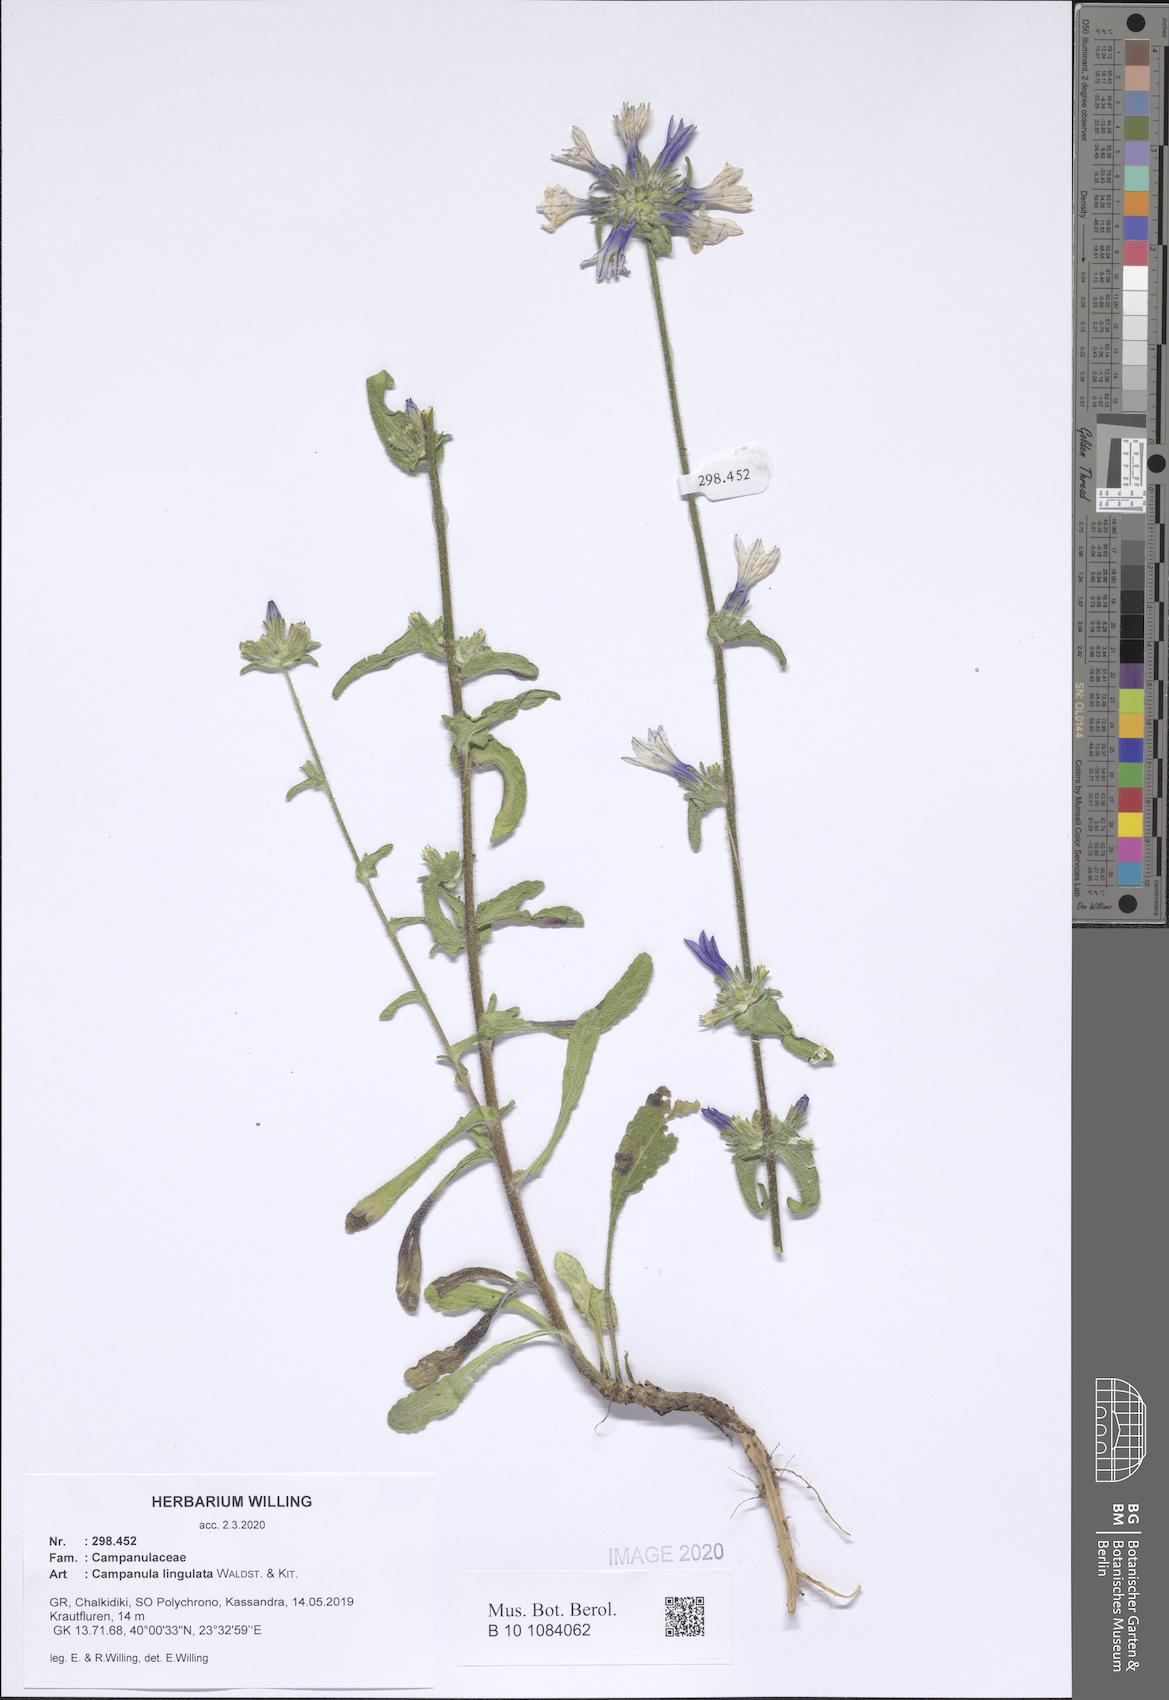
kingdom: Plantae
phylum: Tracheophyta
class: Magnoliopsida
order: Asterales
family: Campanulaceae
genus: Campanula
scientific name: Campanula lingulata
